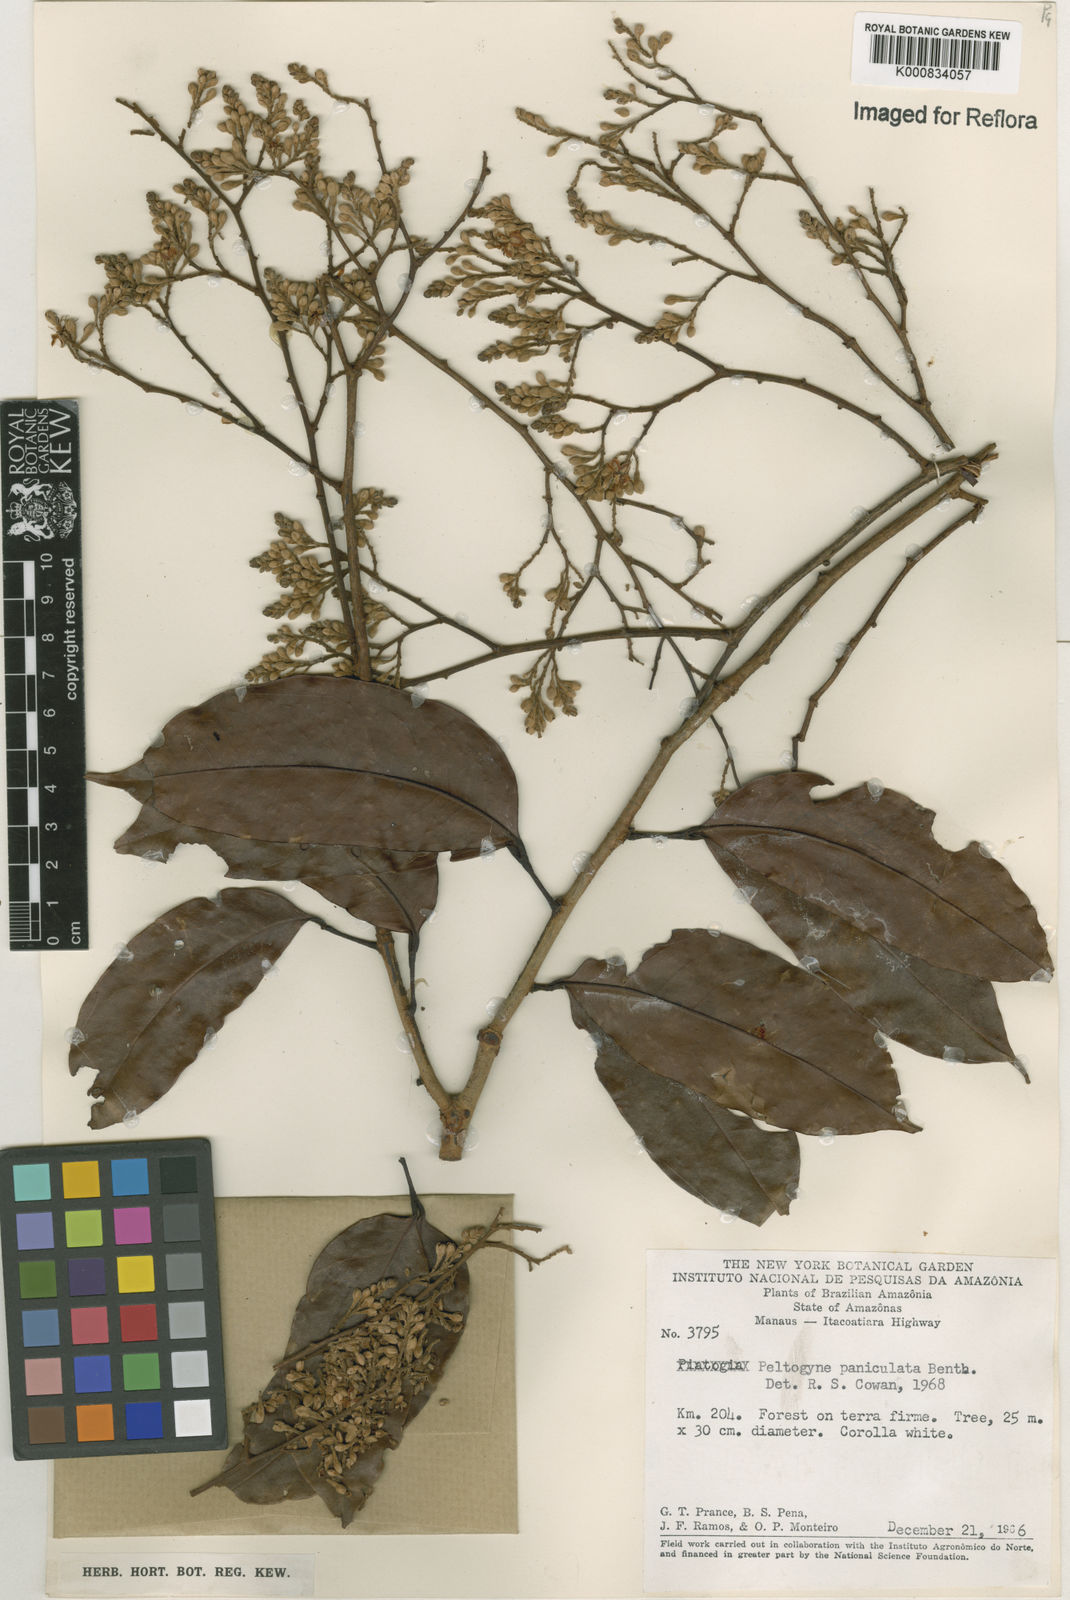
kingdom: Plantae
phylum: Tracheophyta
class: Magnoliopsida
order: Fabales
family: Fabaceae
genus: Peltogyne
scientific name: Peltogyne paniculata
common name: Purpleheart
